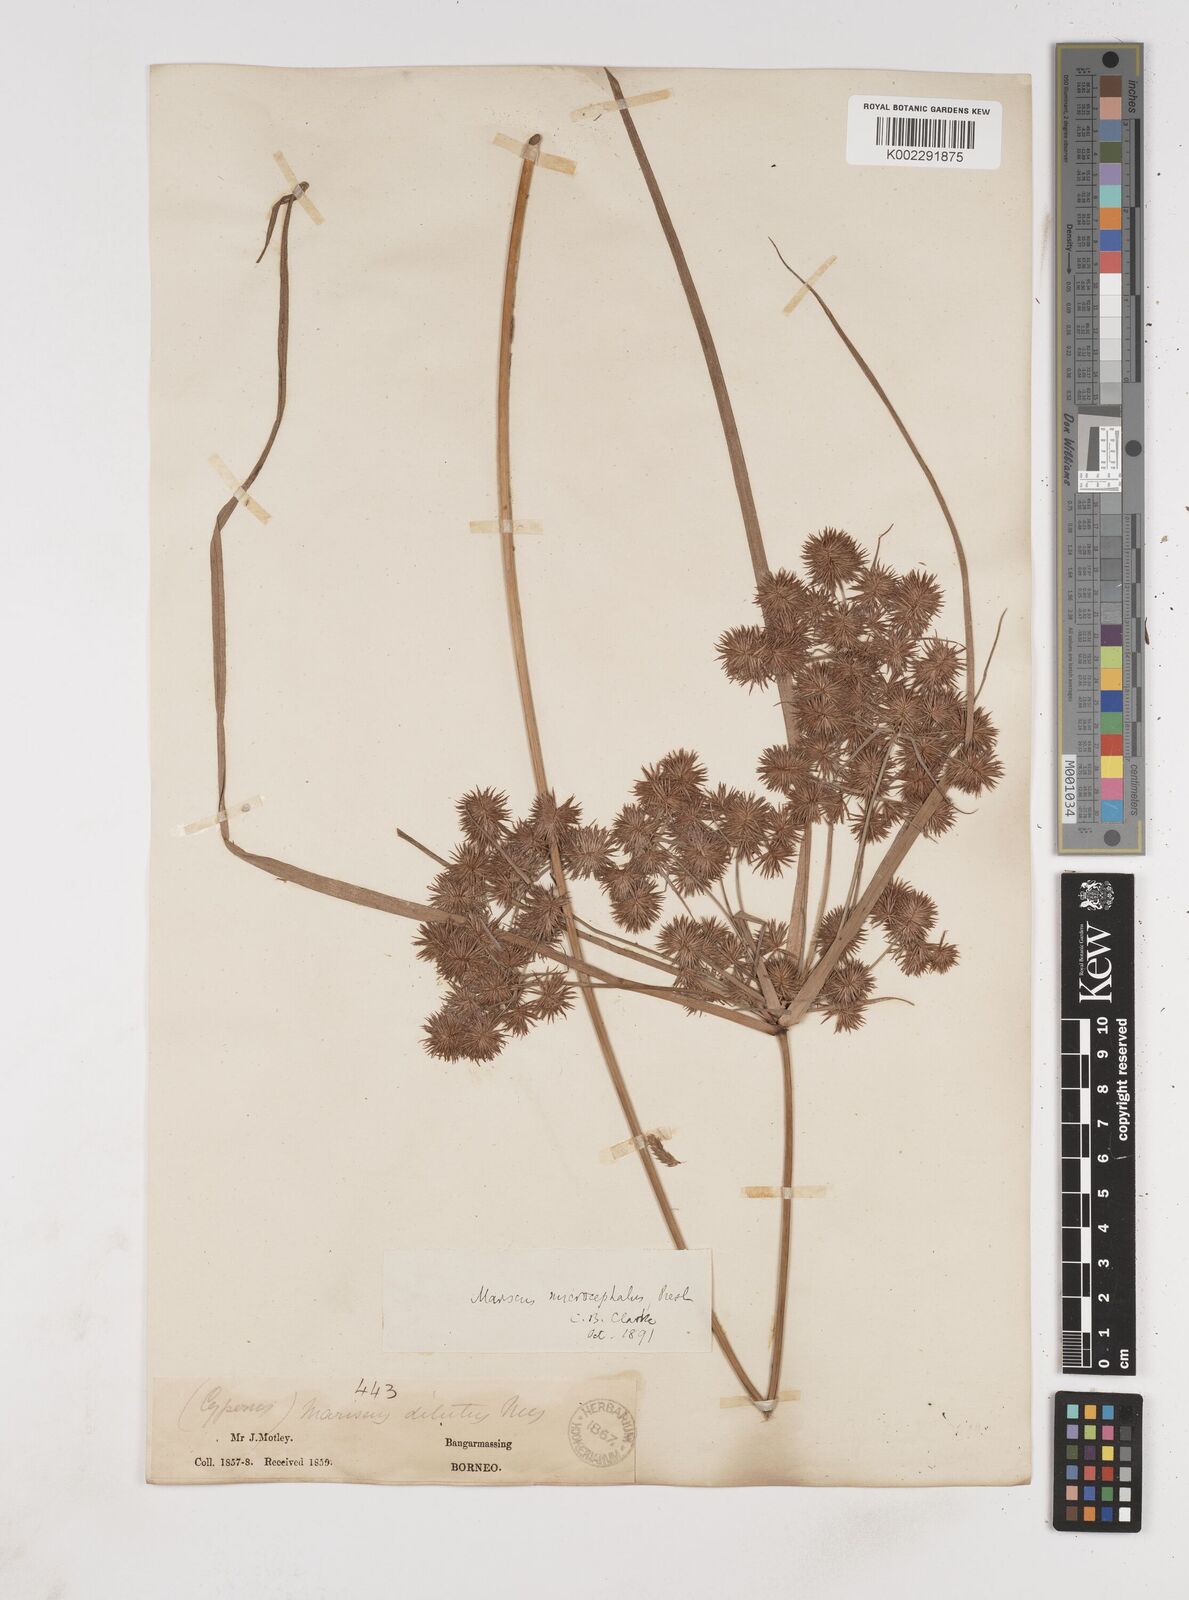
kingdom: Plantae
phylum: Tracheophyta
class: Liliopsida
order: Poales
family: Cyperaceae
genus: Cyperus
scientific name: Cyperus compactus
